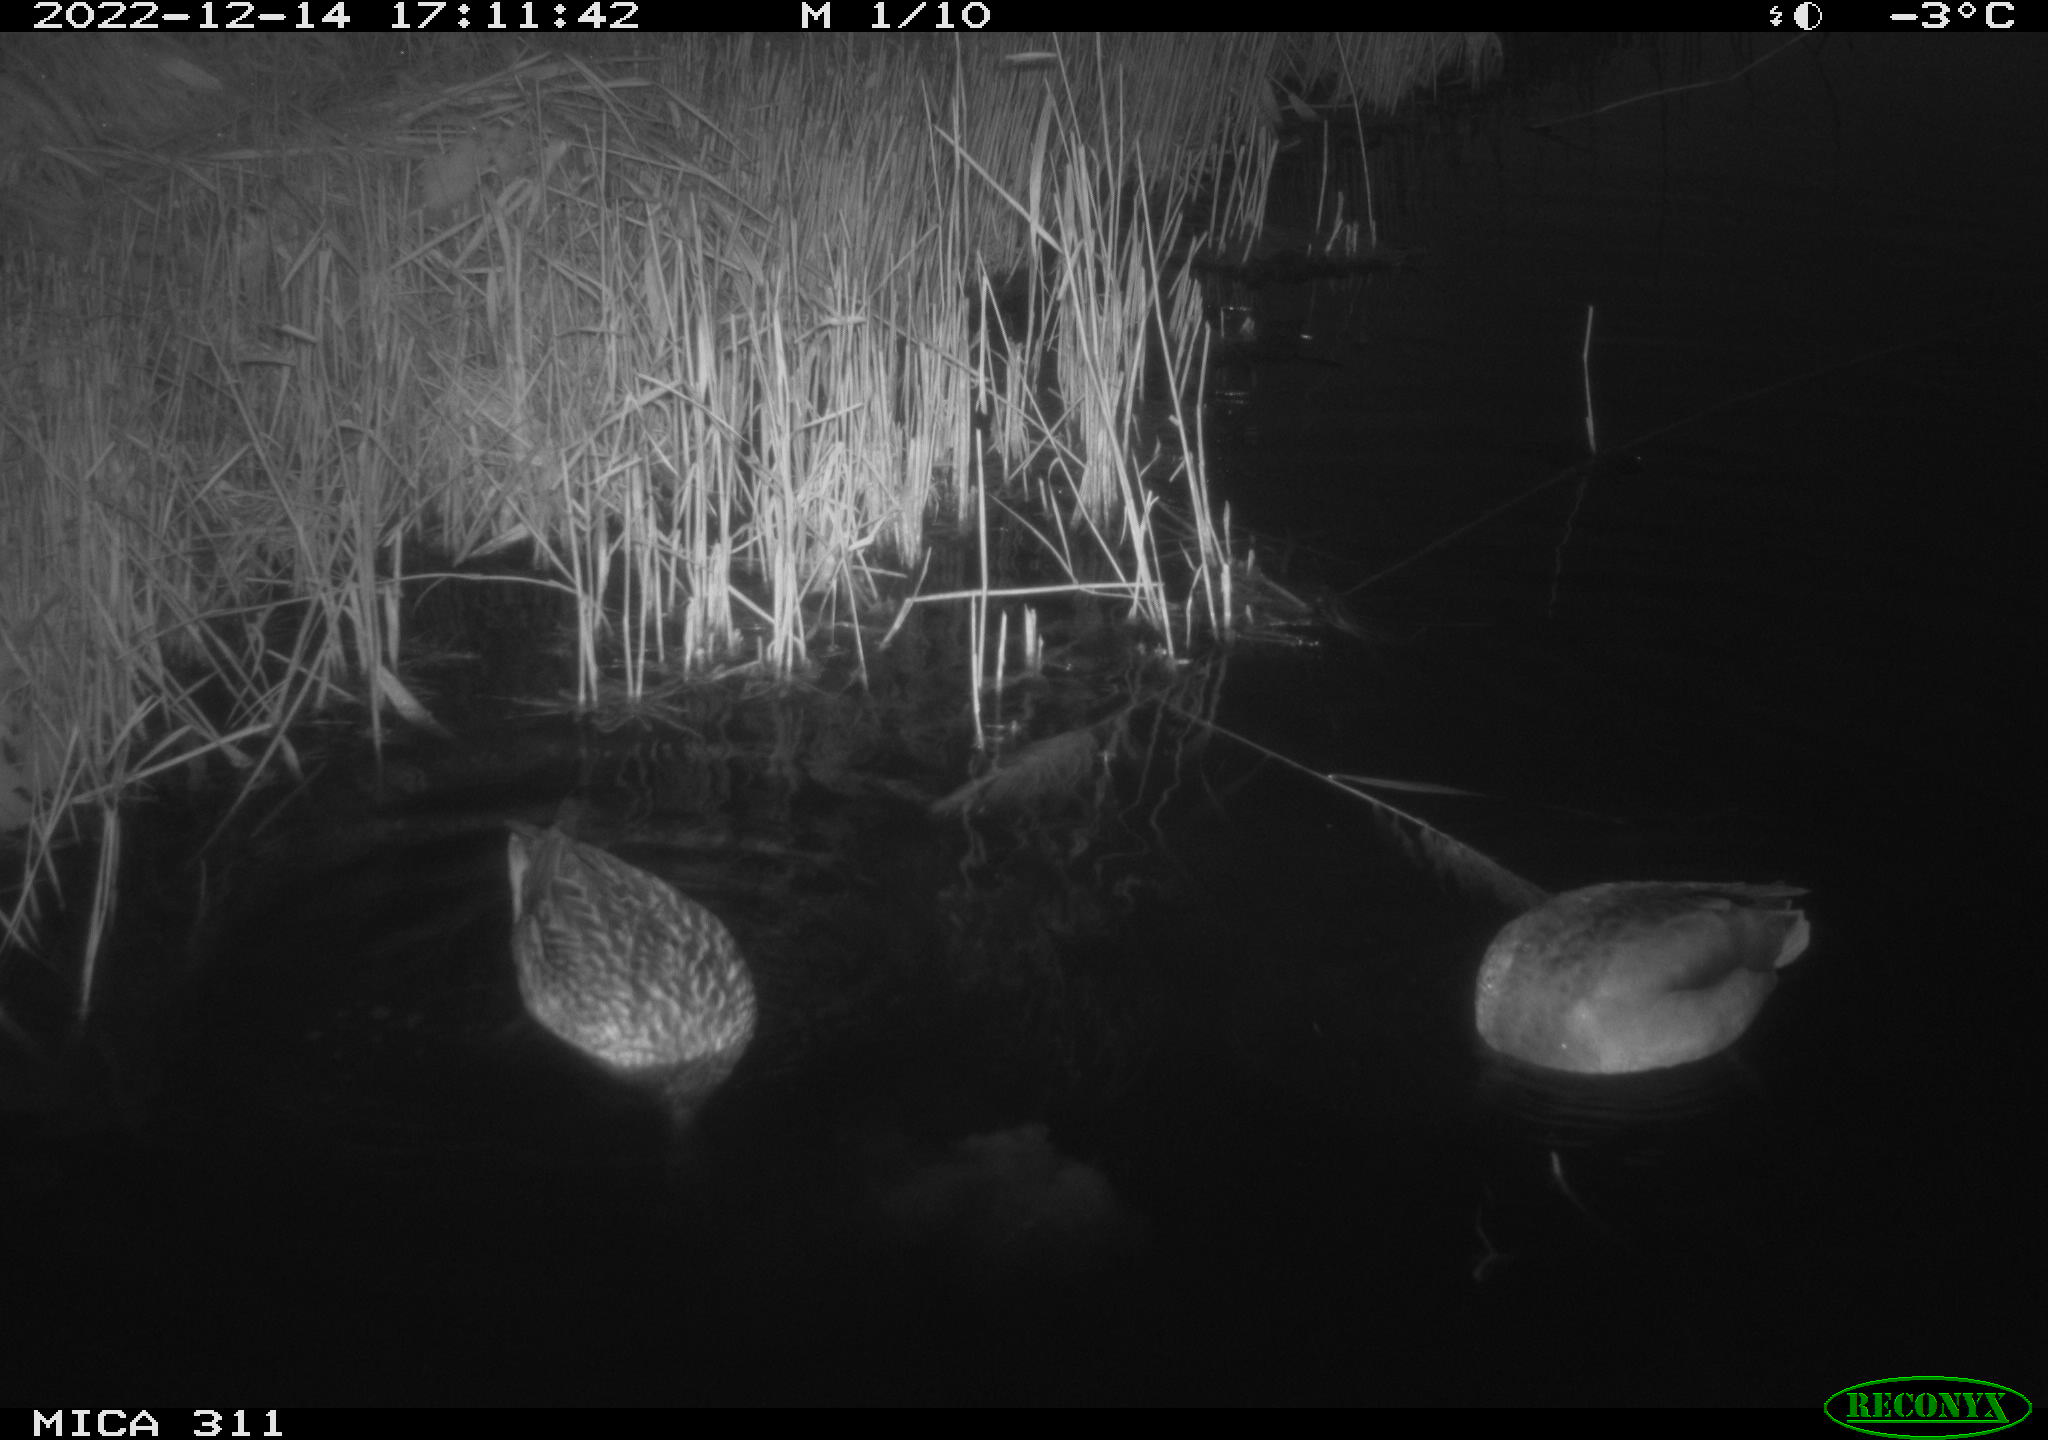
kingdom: Animalia
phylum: Chordata
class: Mammalia
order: Rodentia
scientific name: Rodentia
